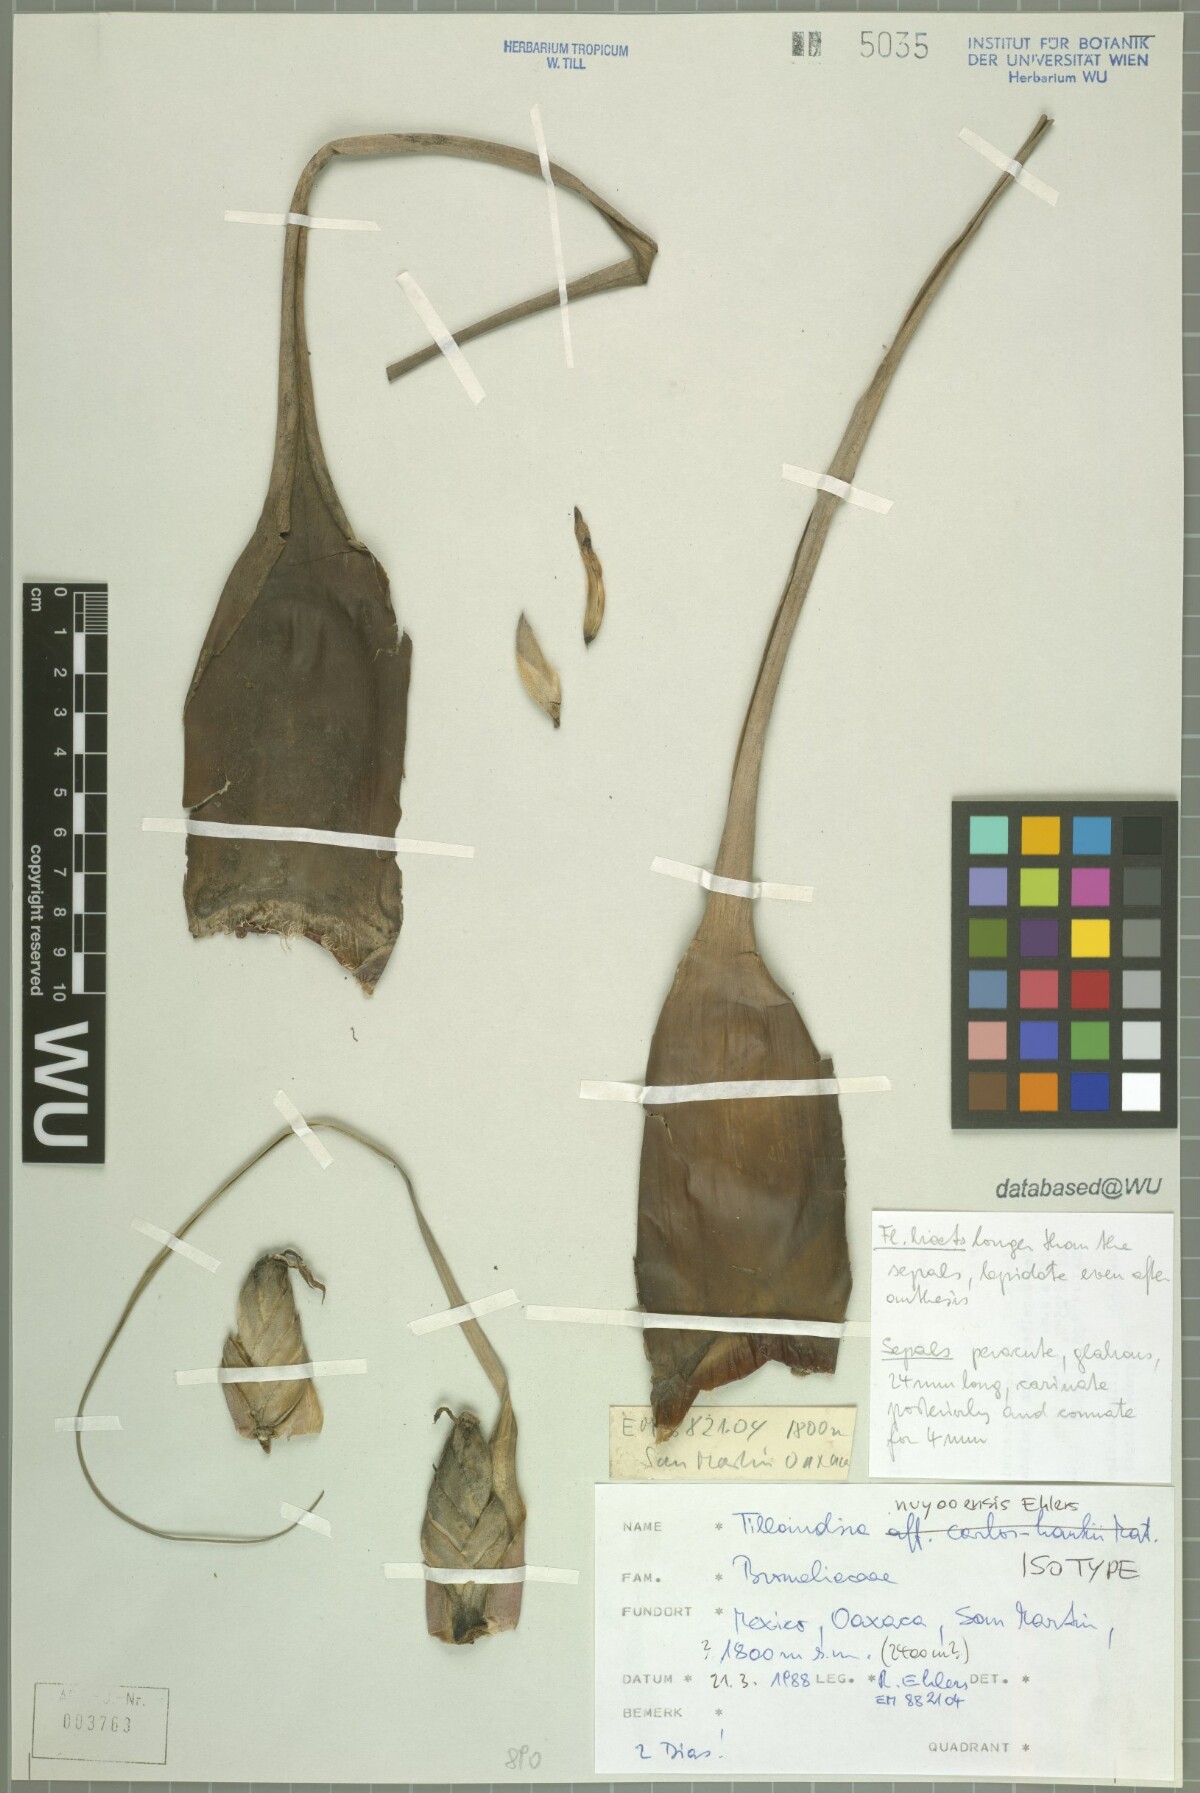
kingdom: Plantae
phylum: Tracheophyta
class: Liliopsida
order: Poales
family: Bromeliaceae
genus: Tillandsia
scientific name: Tillandsia nuyooensis
